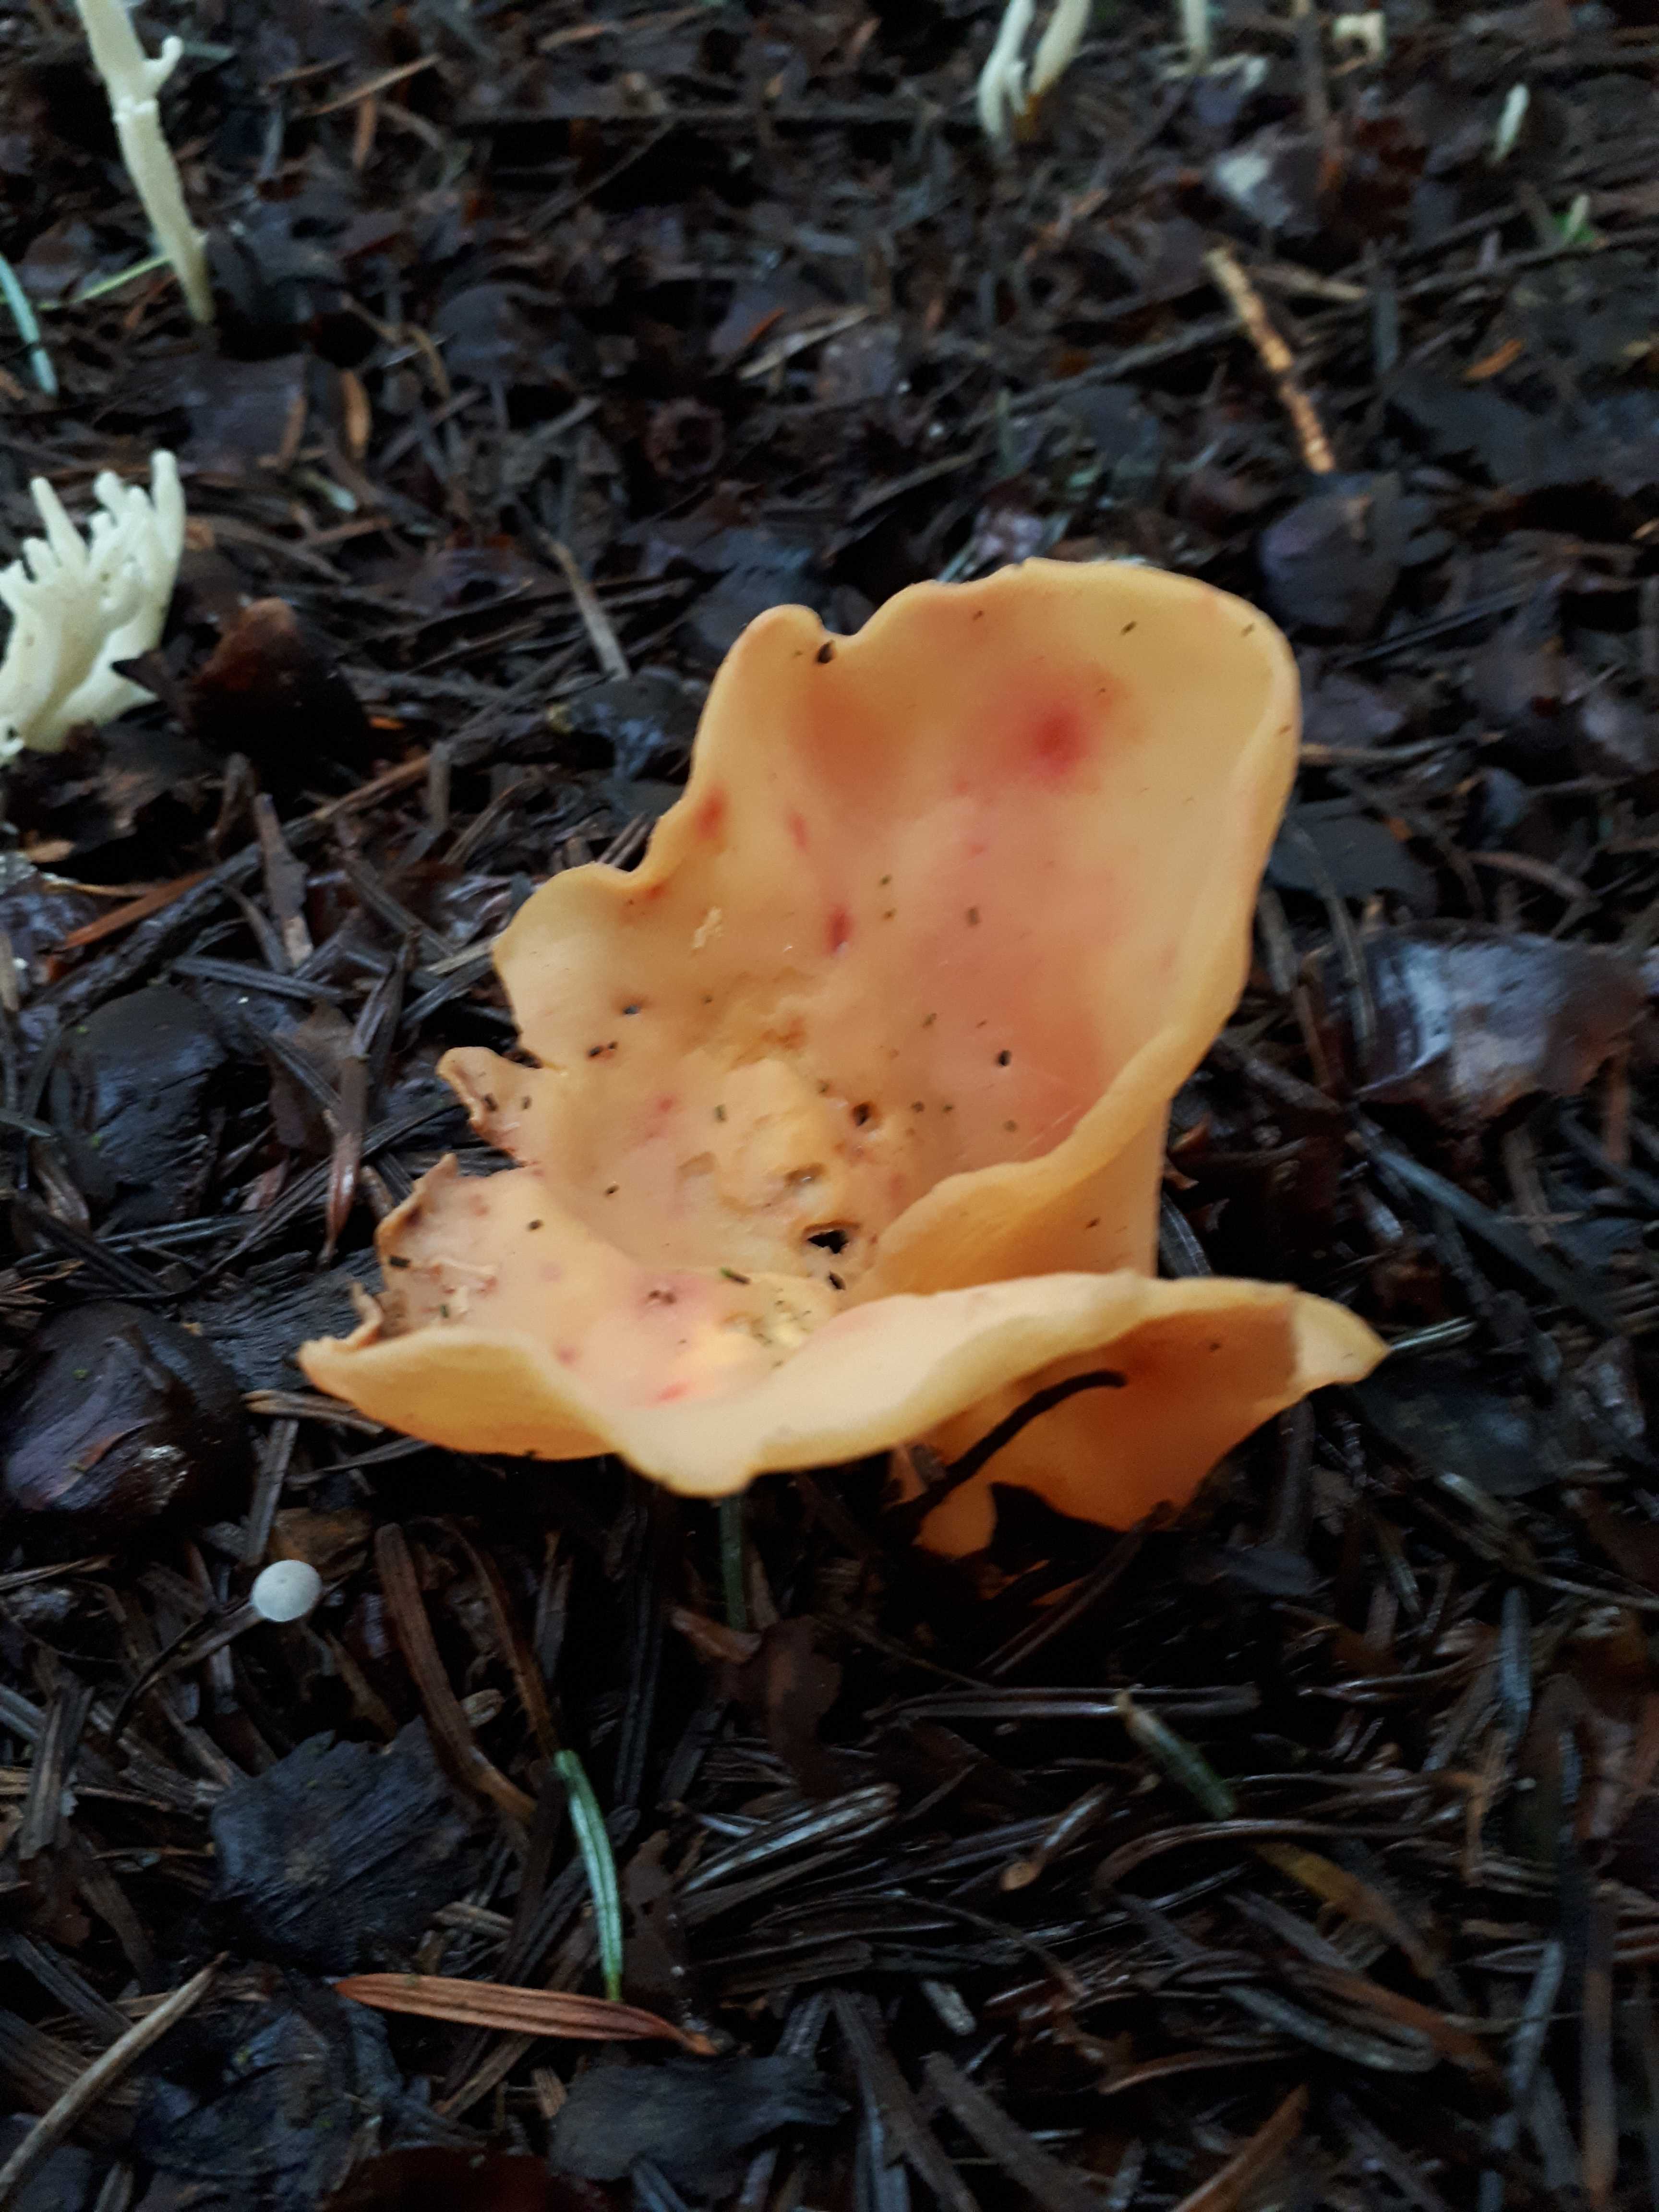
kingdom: Fungi
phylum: Ascomycota
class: Pezizomycetes
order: Pezizales
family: Otideaceae
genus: Otidea
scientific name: Otidea onotica
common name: æsel-ørebæger
